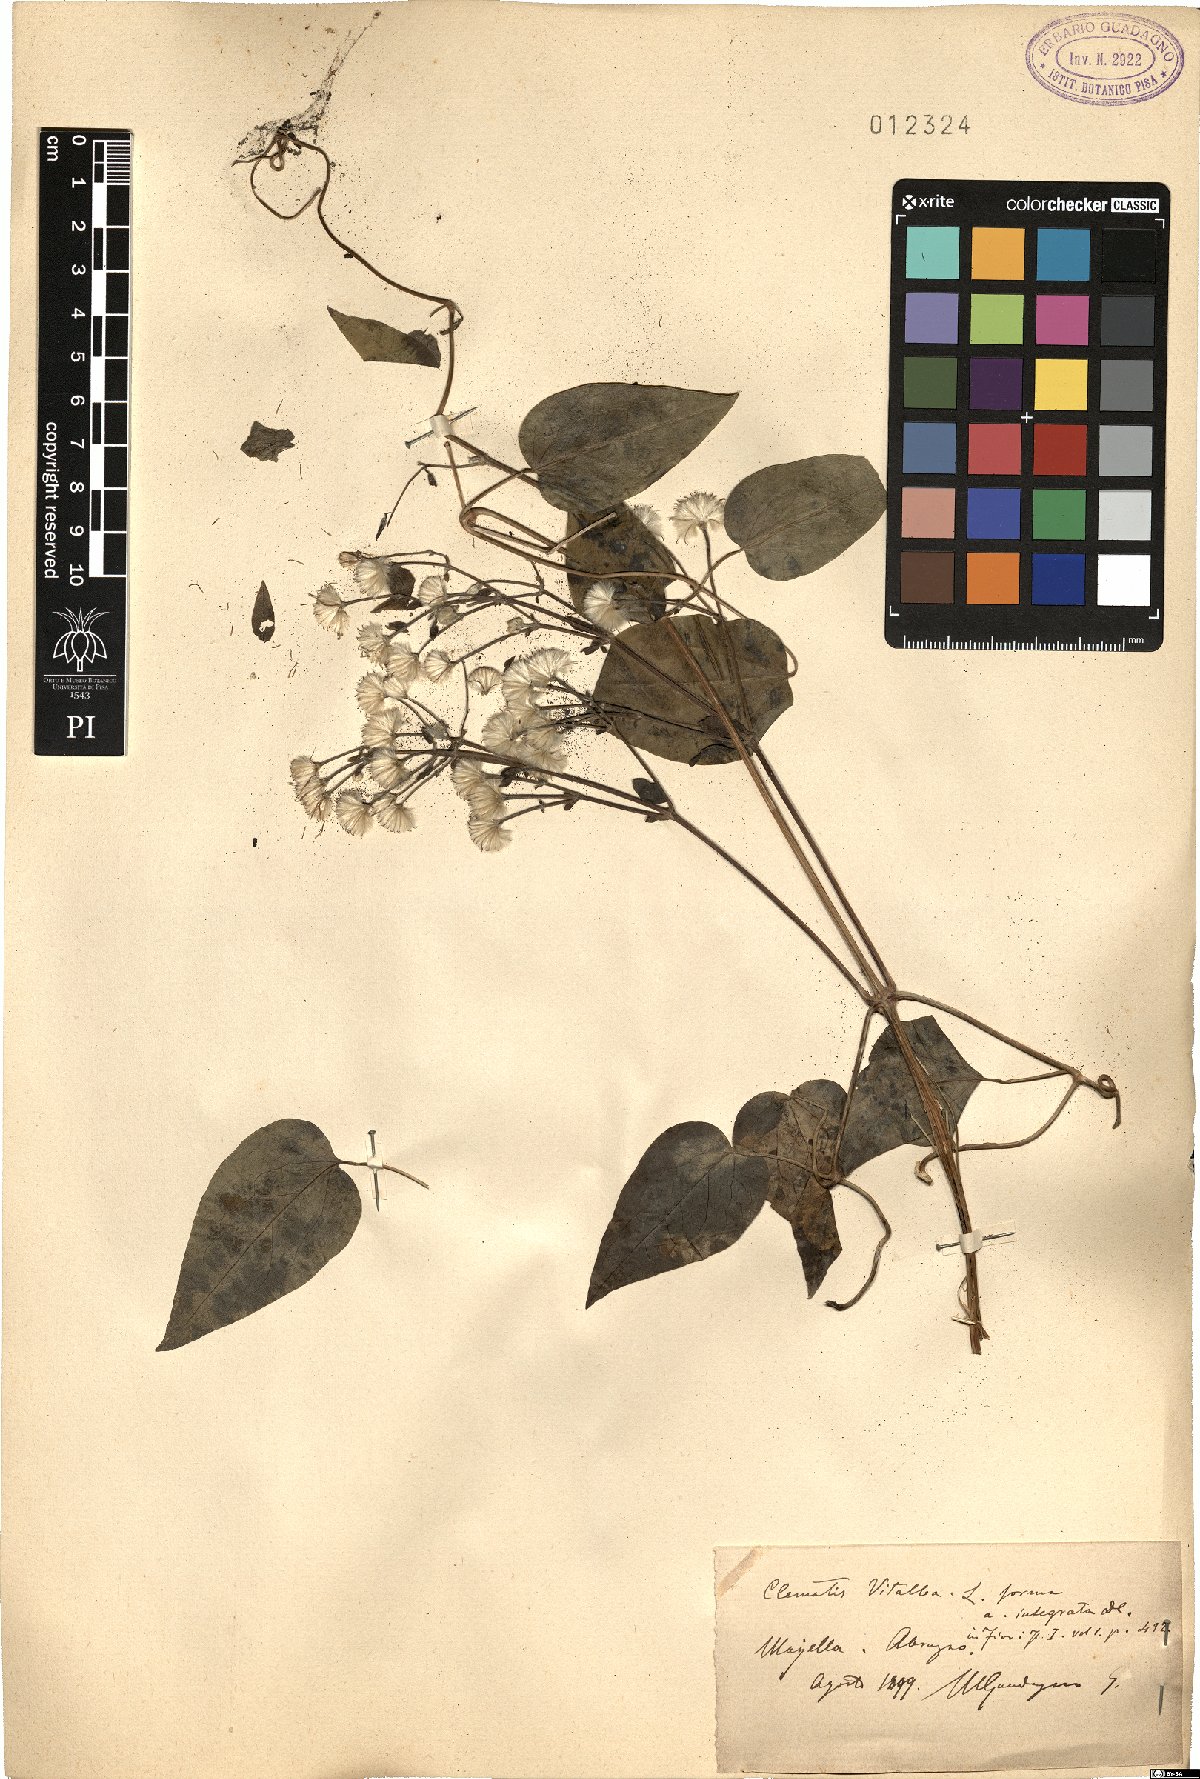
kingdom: Plantae
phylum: Tracheophyta
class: Magnoliopsida
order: Ranunculales
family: Ranunculaceae
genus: Clematis
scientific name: Clematis vitalba
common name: Evergreen clematis
